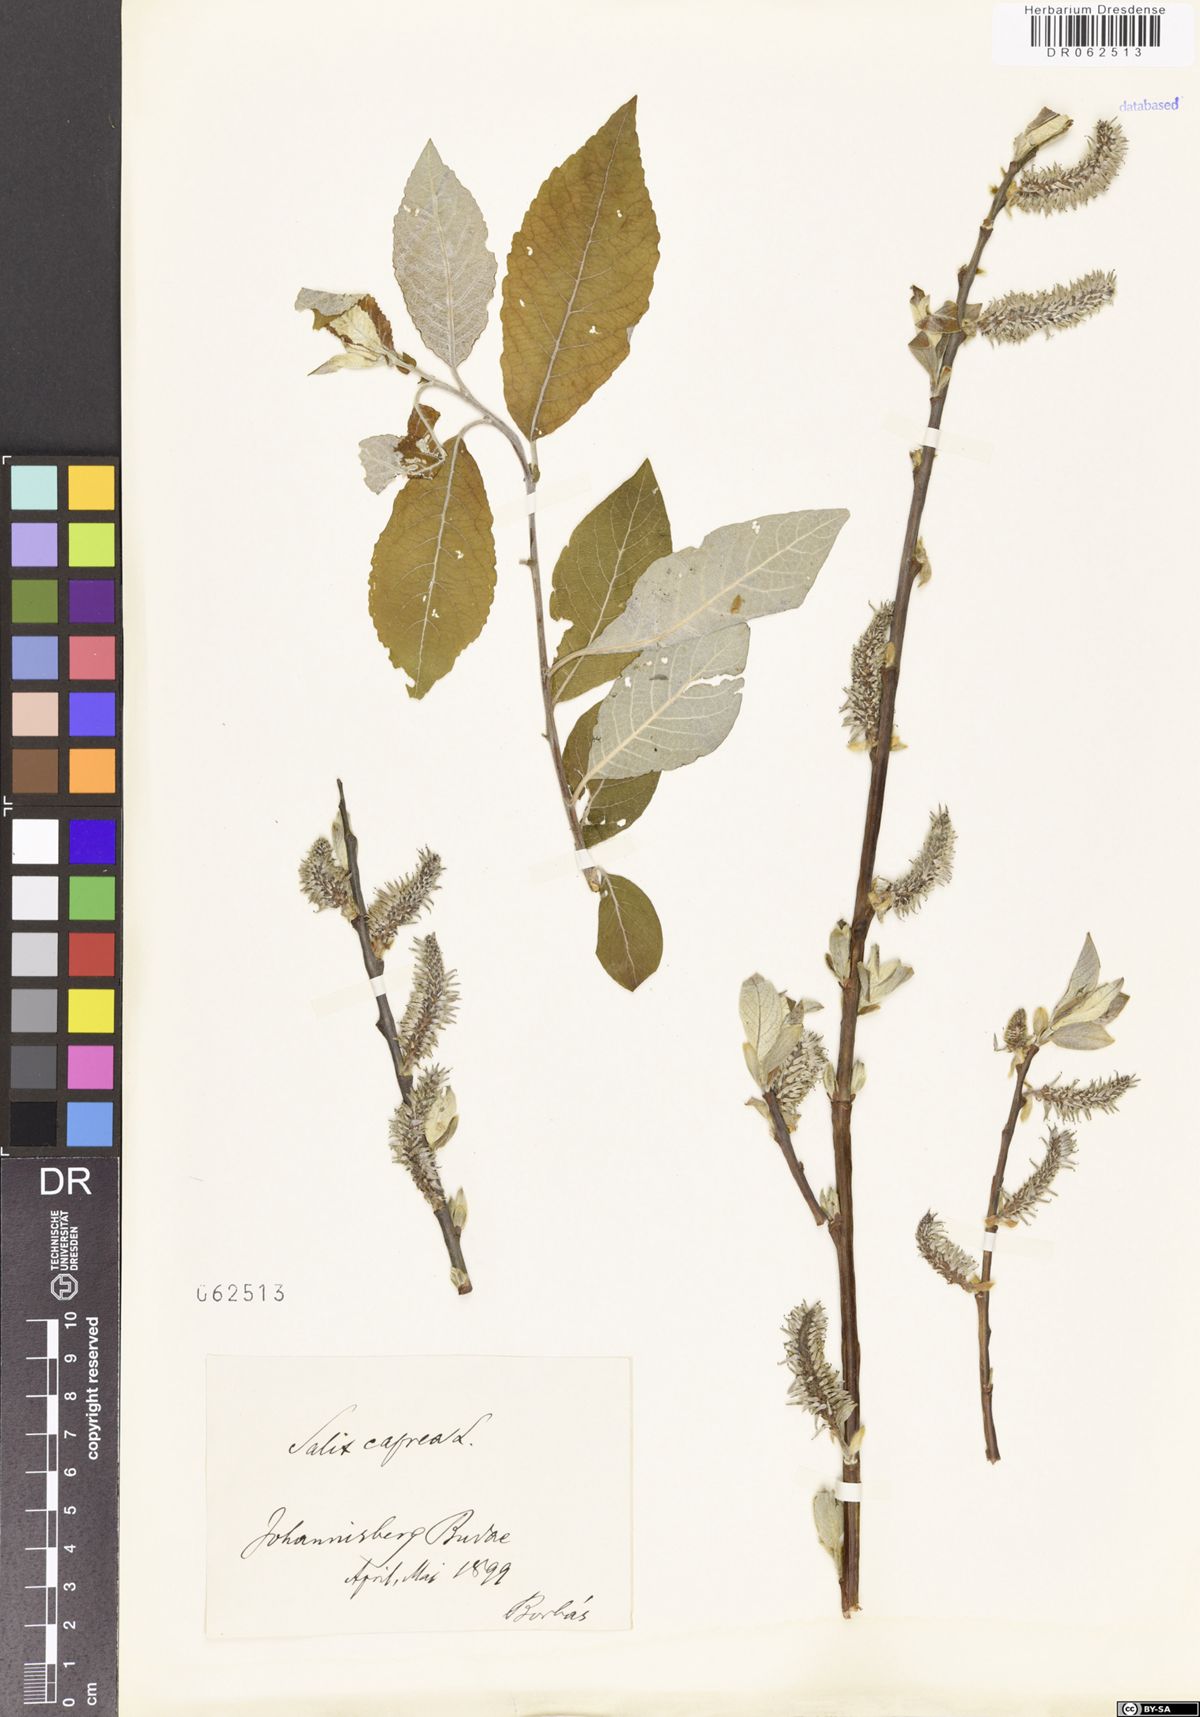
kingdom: Plantae
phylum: Tracheophyta
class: Magnoliopsida
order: Malpighiales
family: Salicaceae
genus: Salix
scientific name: Salix caprea
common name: Goat willow
